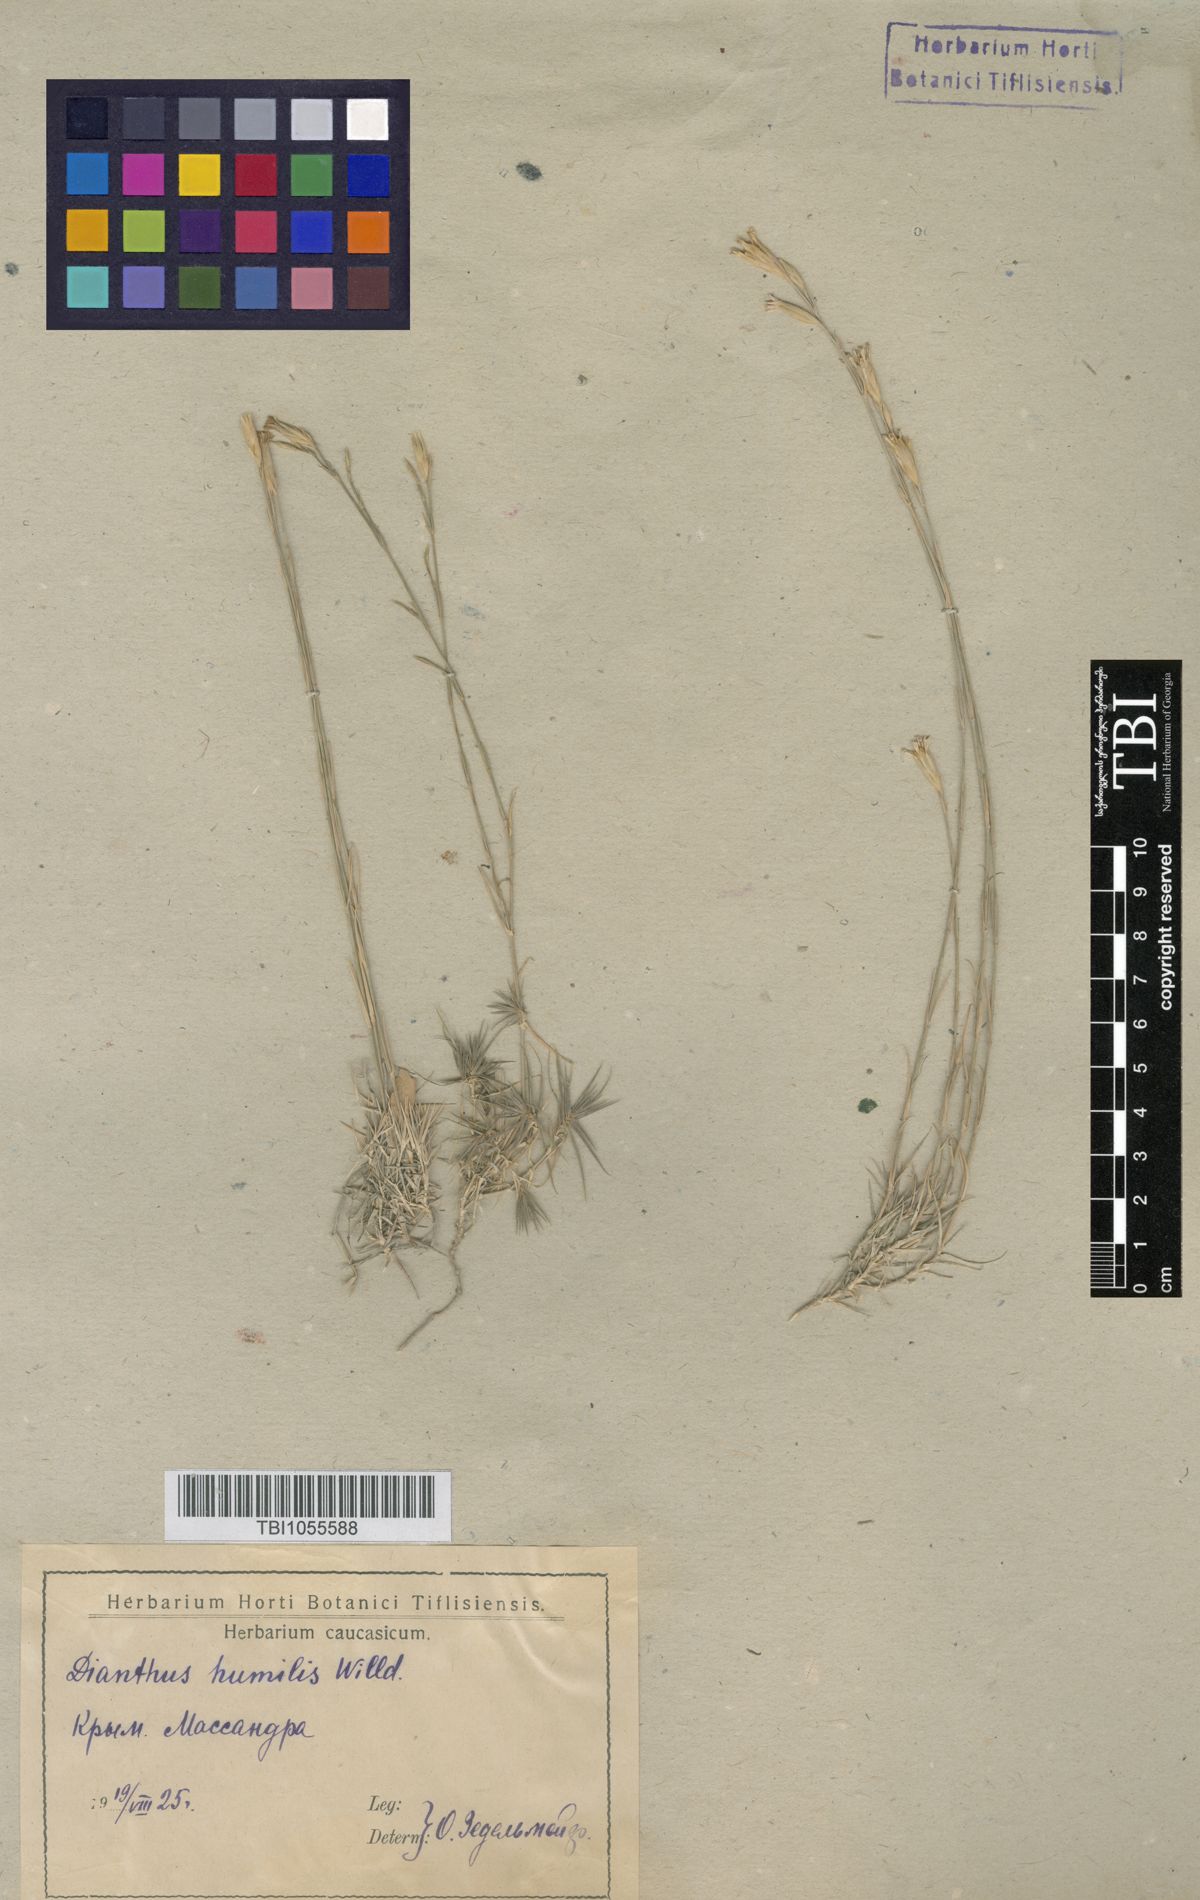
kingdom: Plantae
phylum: Tracheophyta
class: Magnoliopsida
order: Caryophyllales
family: Caryophyllaceae
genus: Dianthus
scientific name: Dianthus humilis
